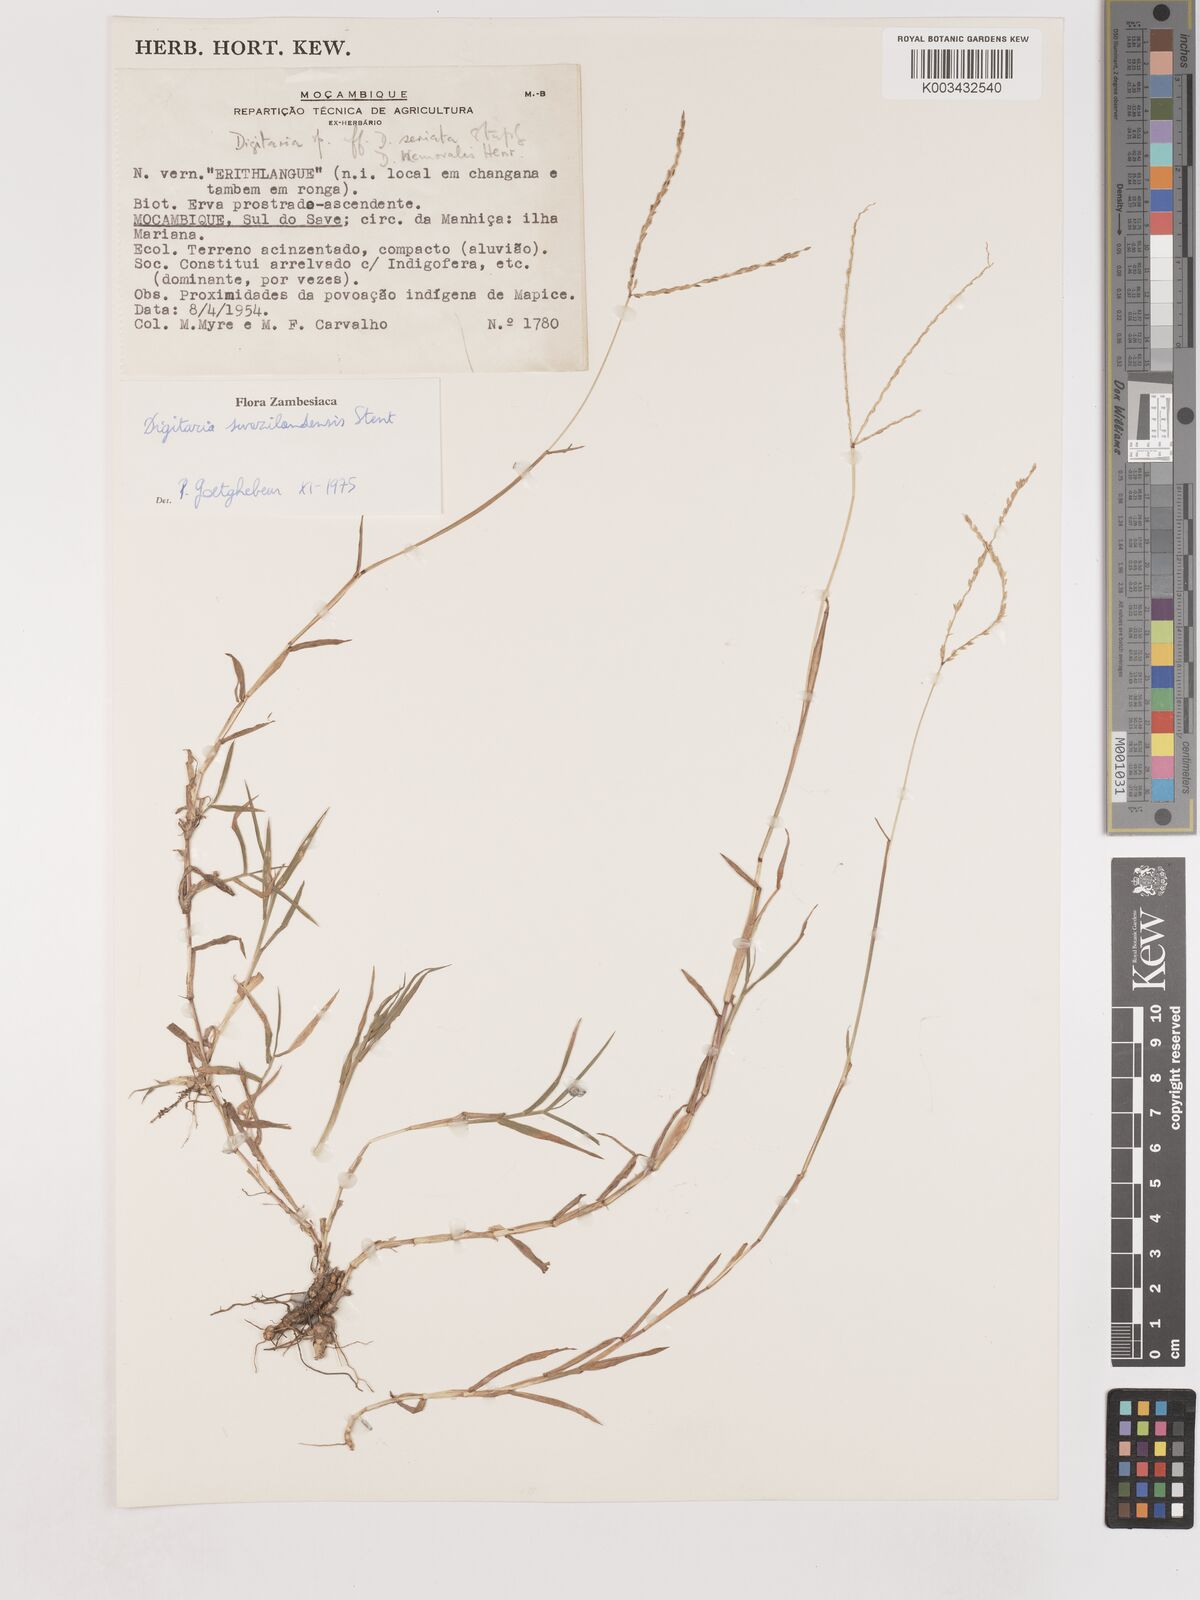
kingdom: Plantae
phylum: Tracheophyta
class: Liliopsida
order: Poales
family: Poaceae
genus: Digitaria
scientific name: Digitaria didactyla
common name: Blue couch
